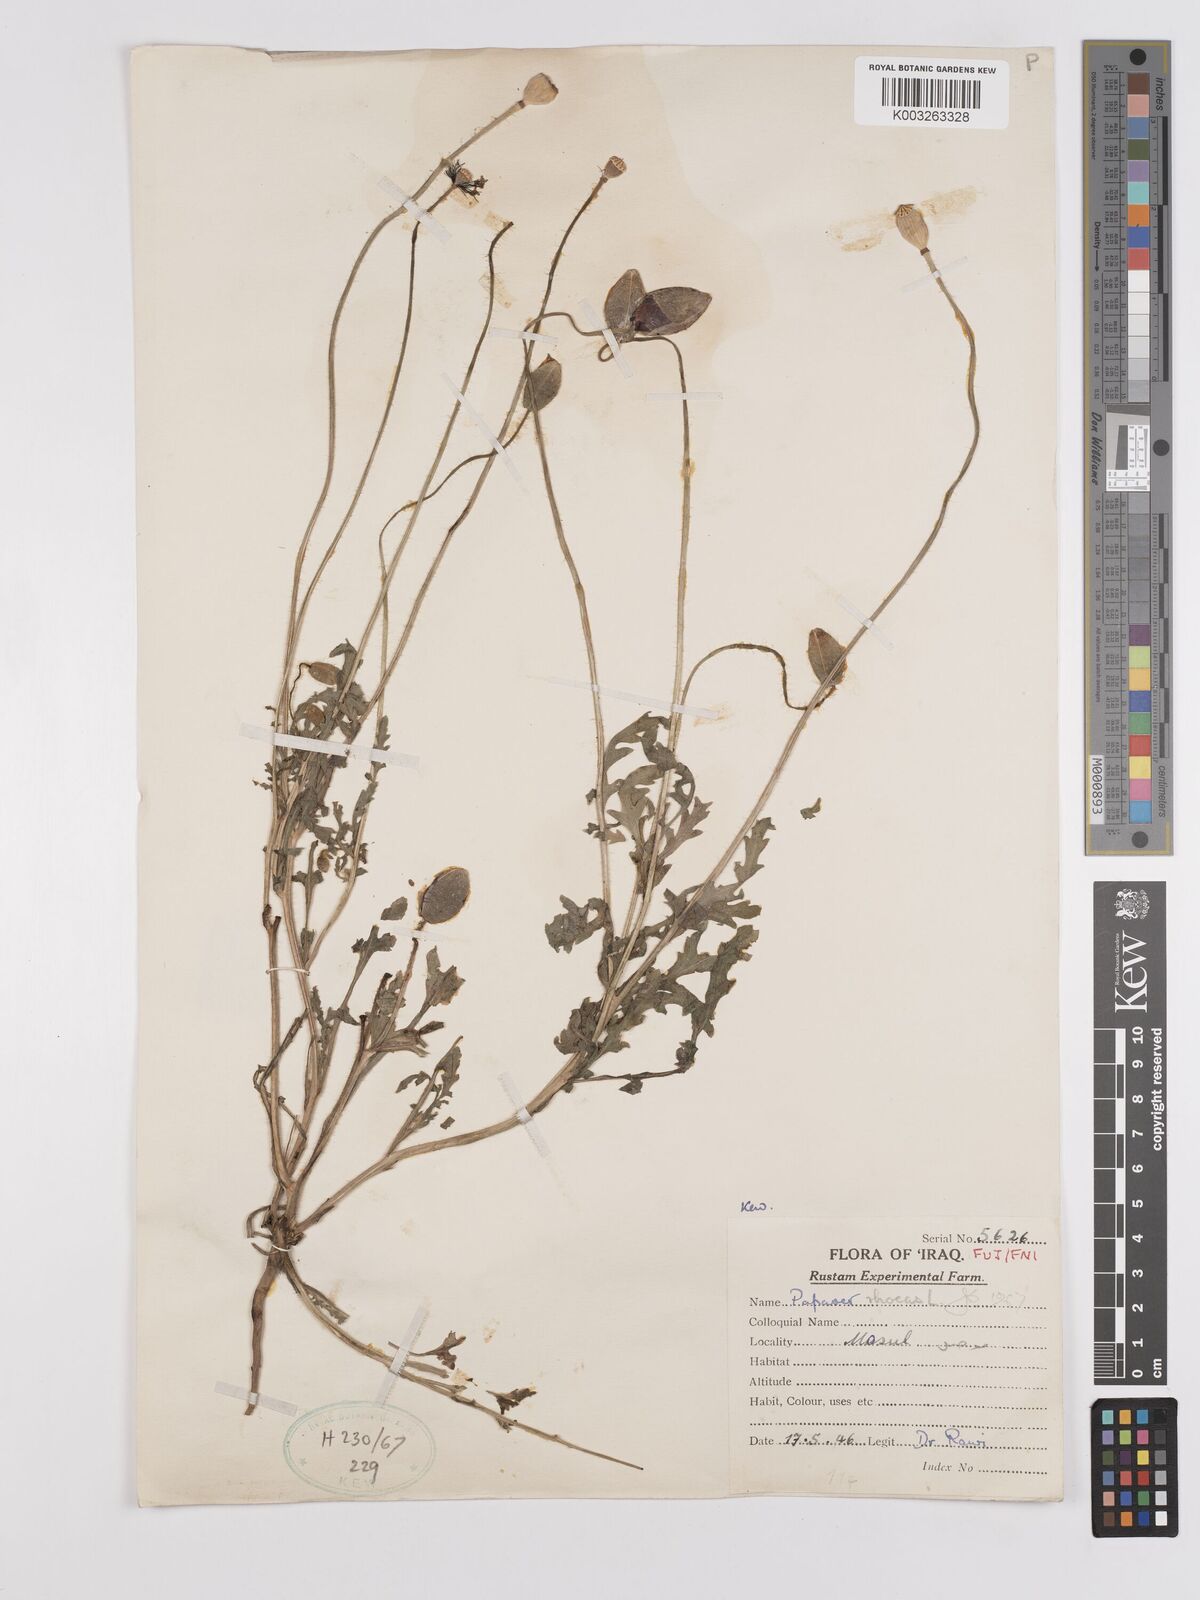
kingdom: Plantae
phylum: Tracheophyta
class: Magnoliopsida
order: Ranunculales
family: Papaveraceae
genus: Papaver
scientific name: Papaver rhoeas
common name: Corn poppy
